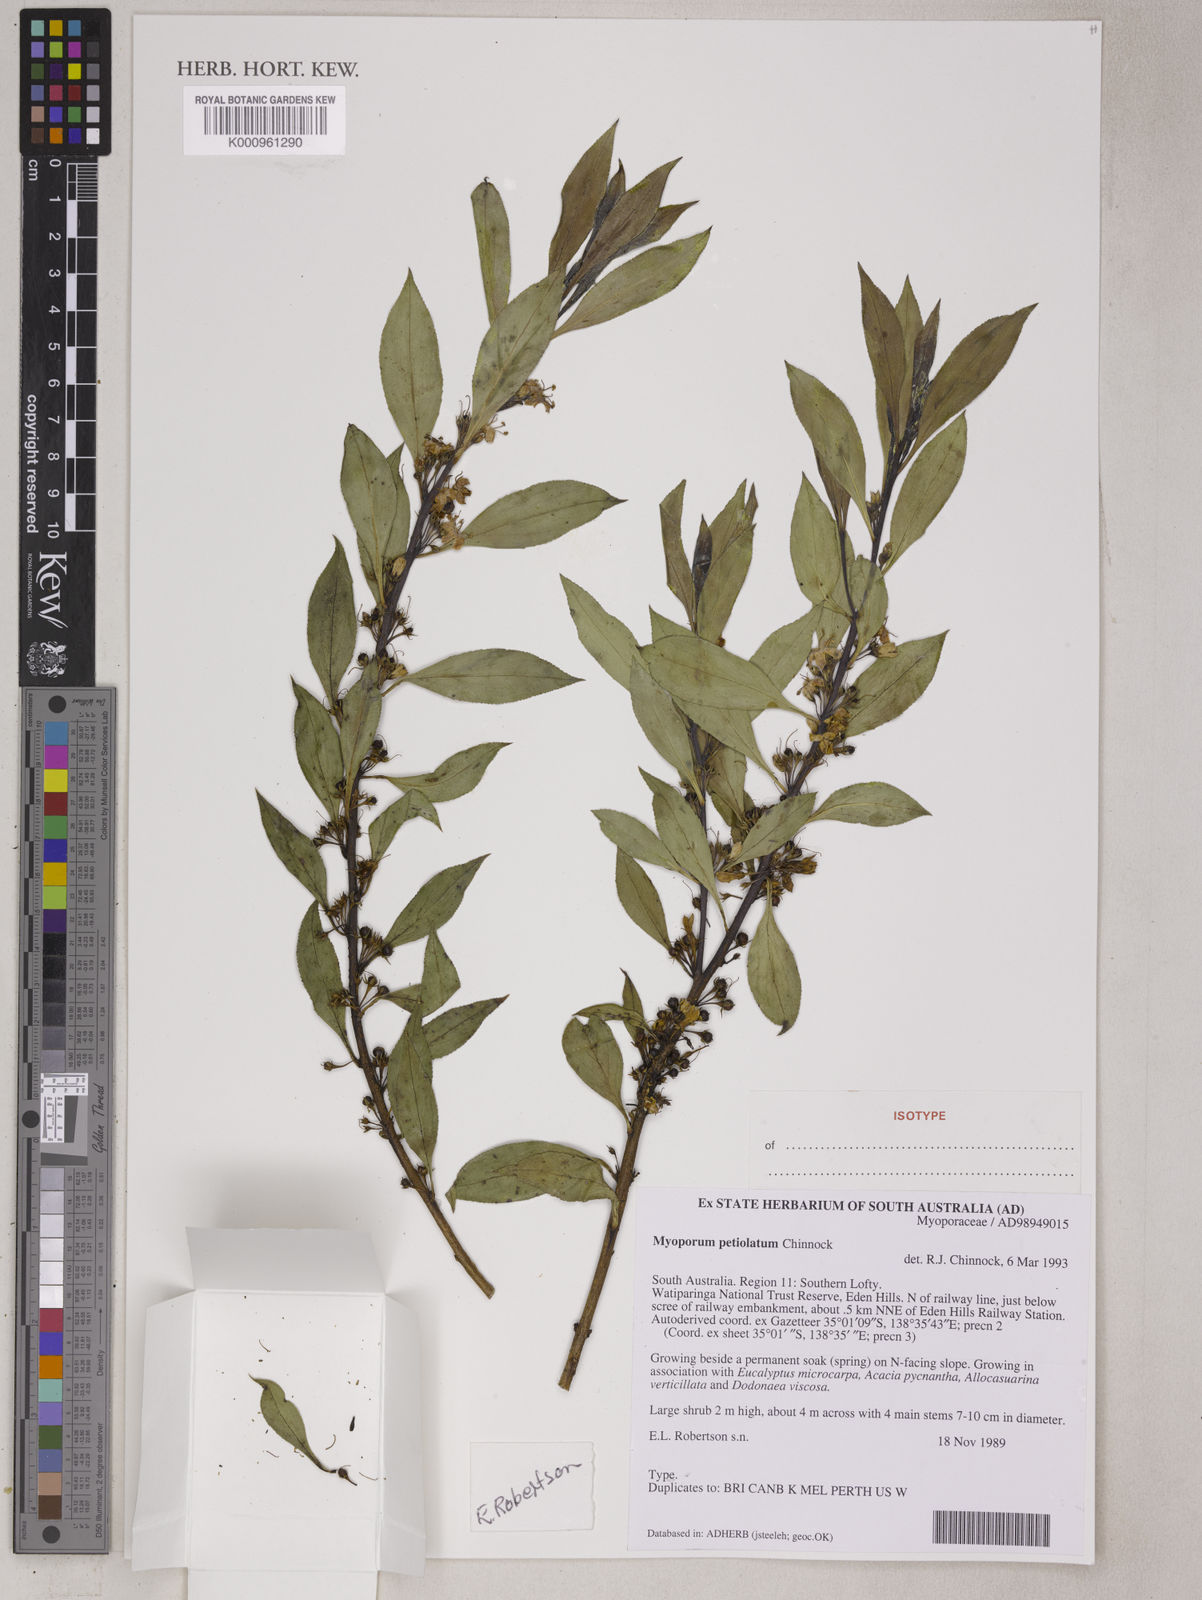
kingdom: Plantae
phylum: Tracheophyta
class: Magnoliopsida
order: Lamiales
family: Scrophulariaceae
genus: Myoporum
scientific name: Myoporum petiolatum
